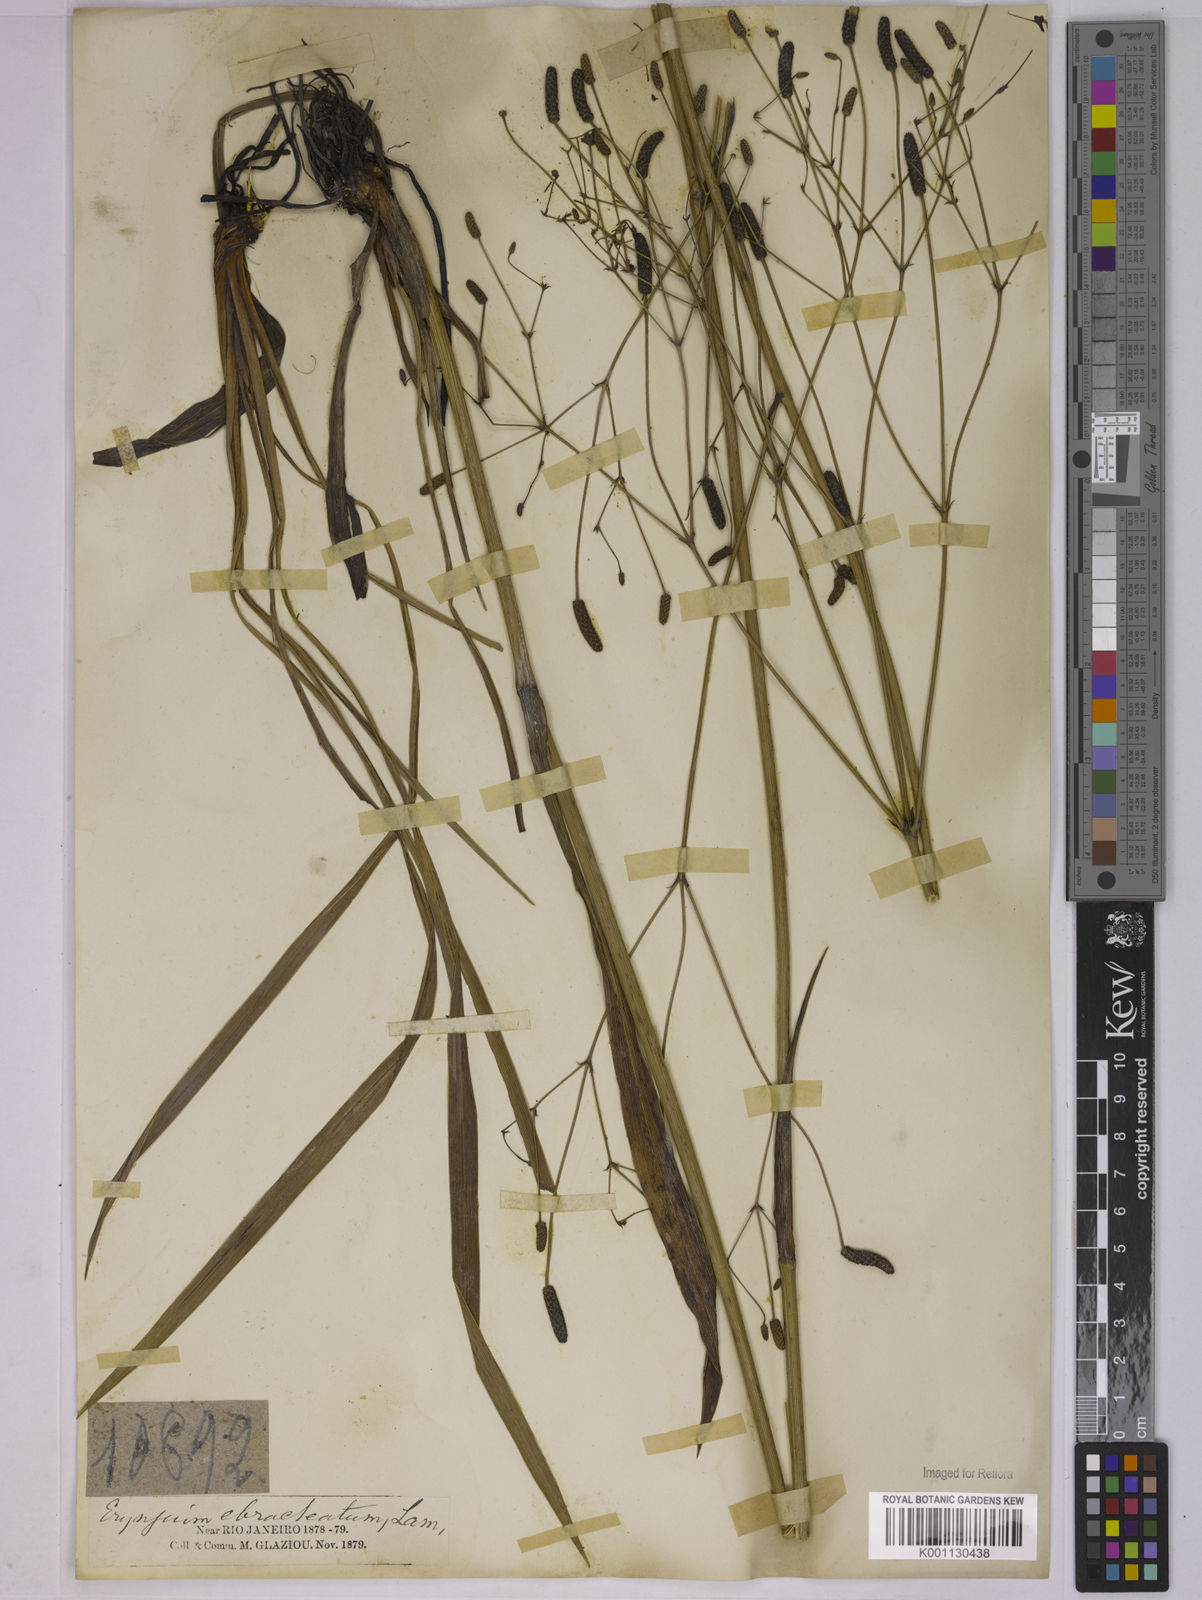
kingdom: Plantae
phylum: Tracheophyta
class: Magnoliopsida
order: Apiales
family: Apiaceae
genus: Eryngium
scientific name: Eryngium ebracteatum
